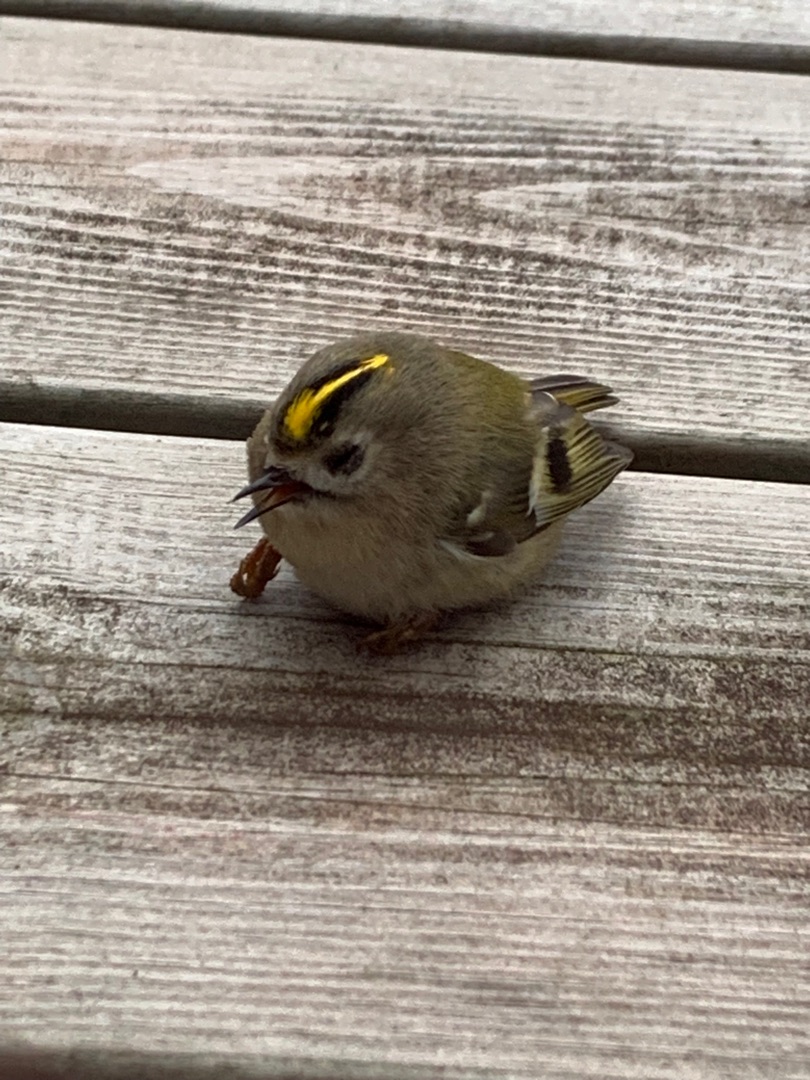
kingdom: Animalia
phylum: Chordata
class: Aves
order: Passeriformes
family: Regulidae
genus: Regulus
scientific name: Regulus regulus
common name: Fuglekonge
